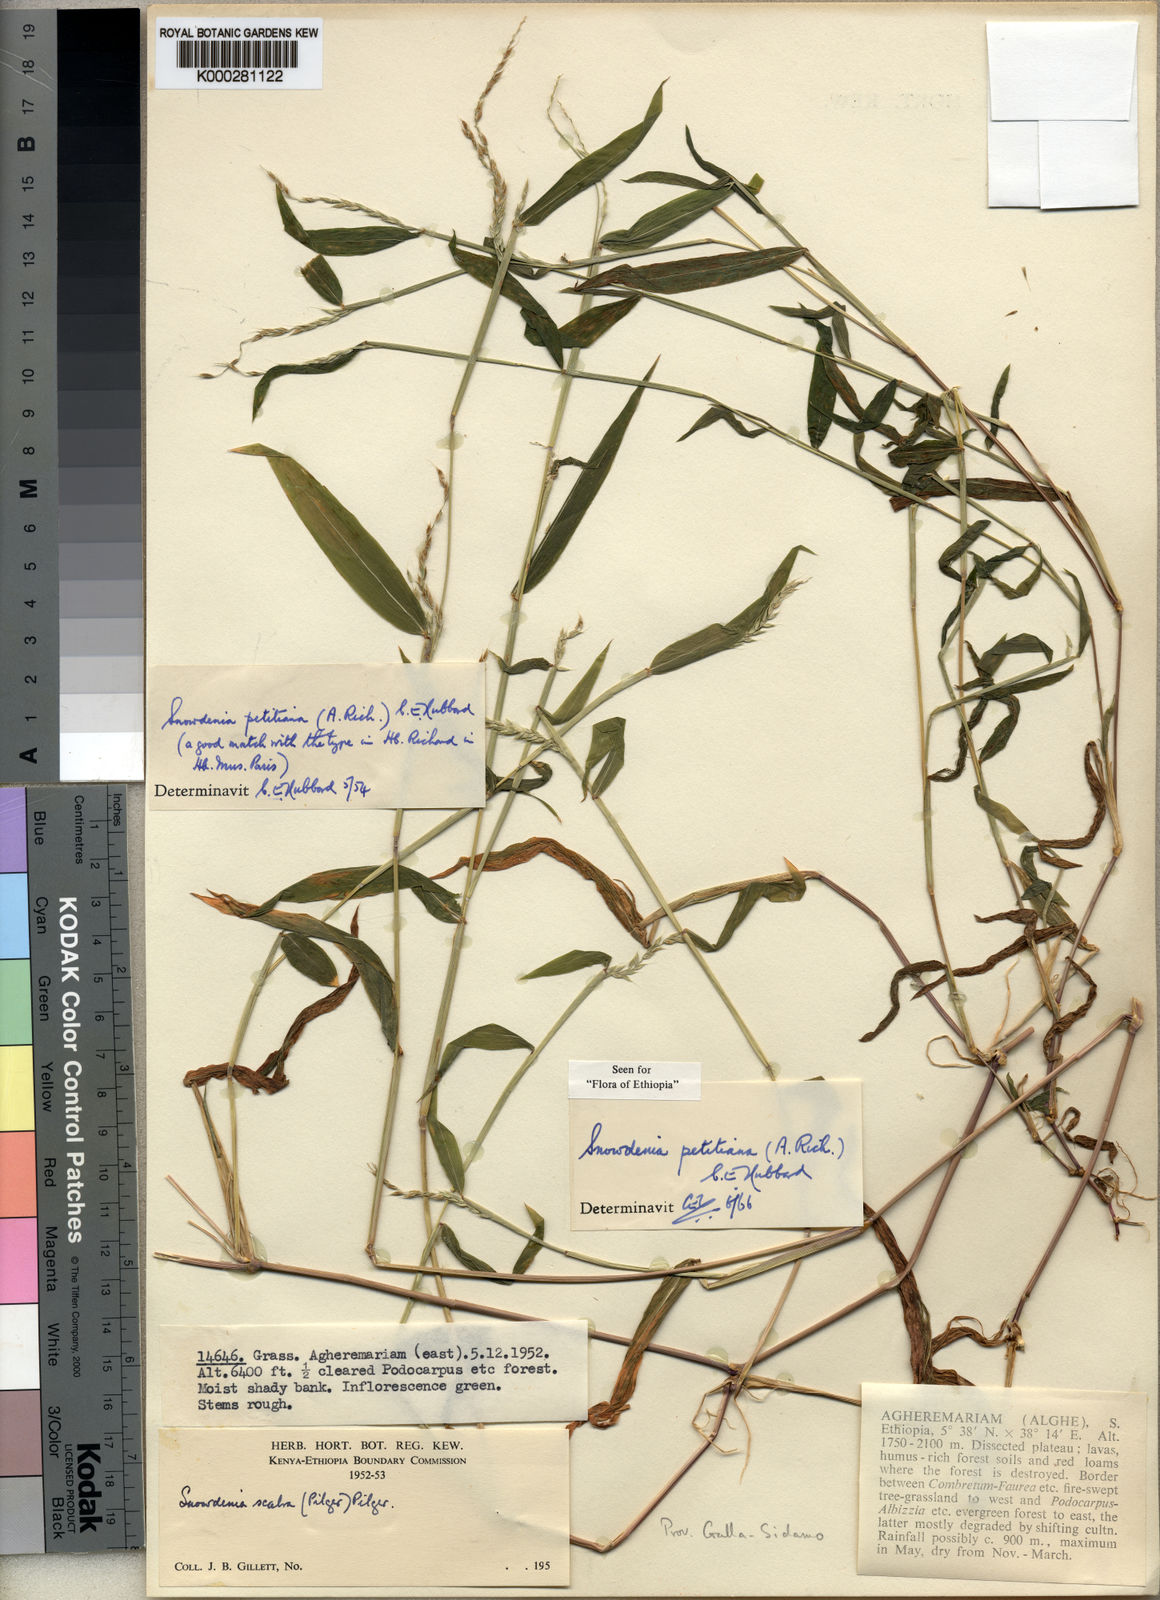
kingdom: Plantae
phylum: Tracheophyta
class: Liliopsida
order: Poales
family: Poaceae
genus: Snowdenia
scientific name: Snowdenia petitiana
